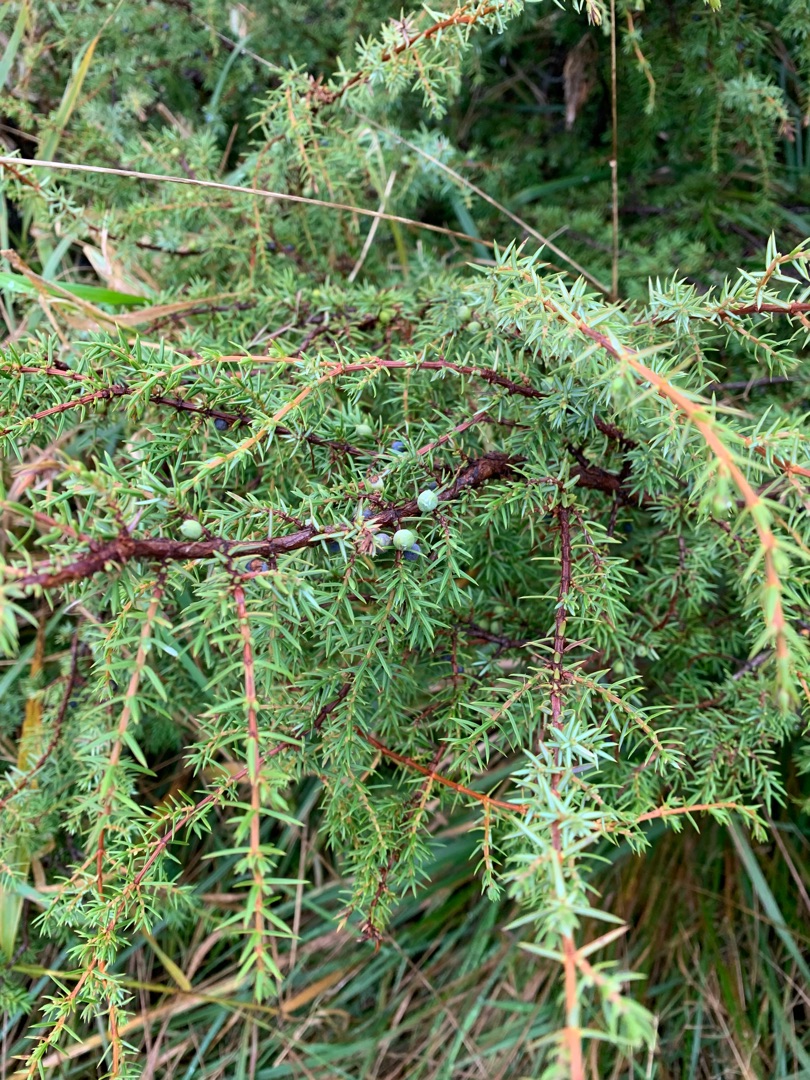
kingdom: Plantae
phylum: Tracheophyta
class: Pinopsida
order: Pinales
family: Cupressaceae
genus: Juniperus
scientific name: Juniperus communis
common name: Almindelig ene
